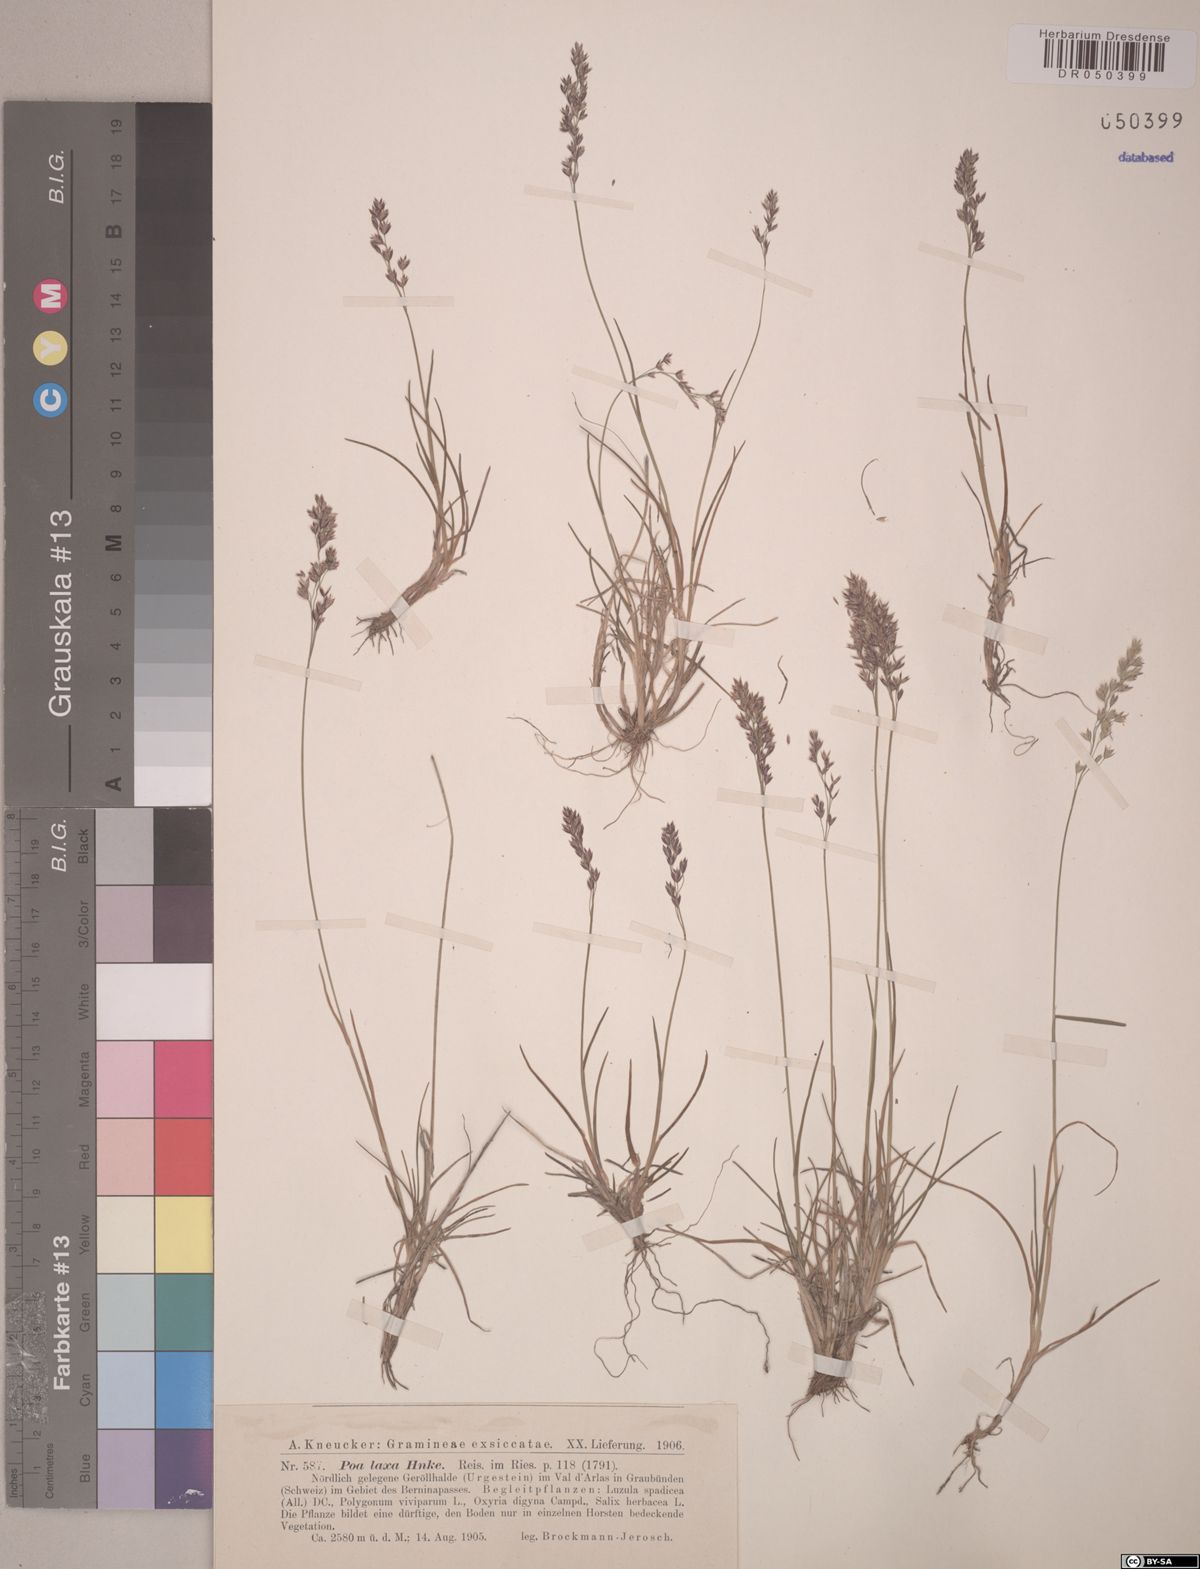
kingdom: Plantae
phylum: Tracheophyta
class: Liliopsida
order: Poales
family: Poaceae
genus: Poa
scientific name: Poa laxa
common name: Lax bluegrass
